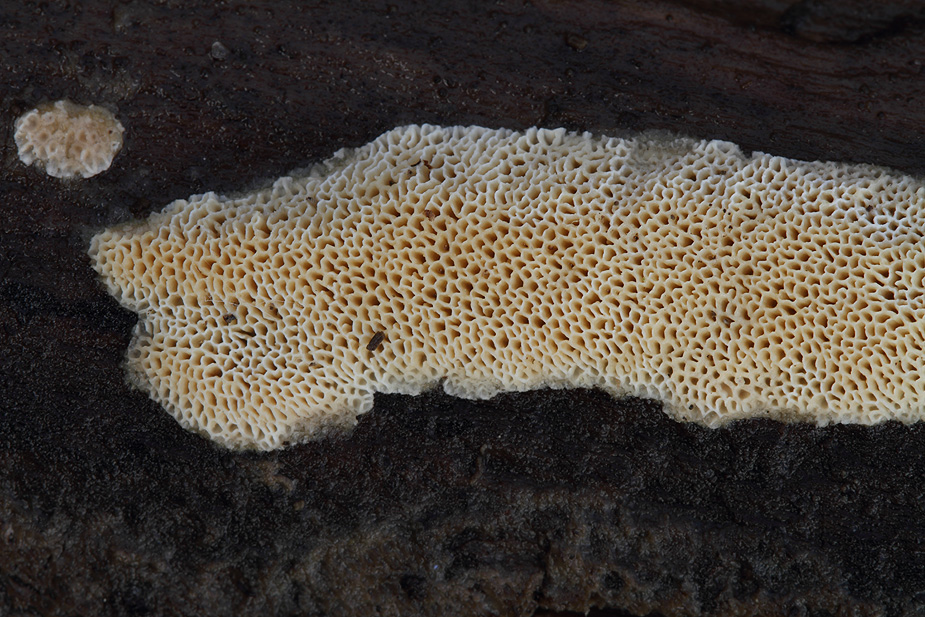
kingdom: Fungi
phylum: Basidiomycota
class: Agaricomycetes
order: Polyporales
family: Cerrenaceae
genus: Raduliporus
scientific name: Raduliporus aneirinus
